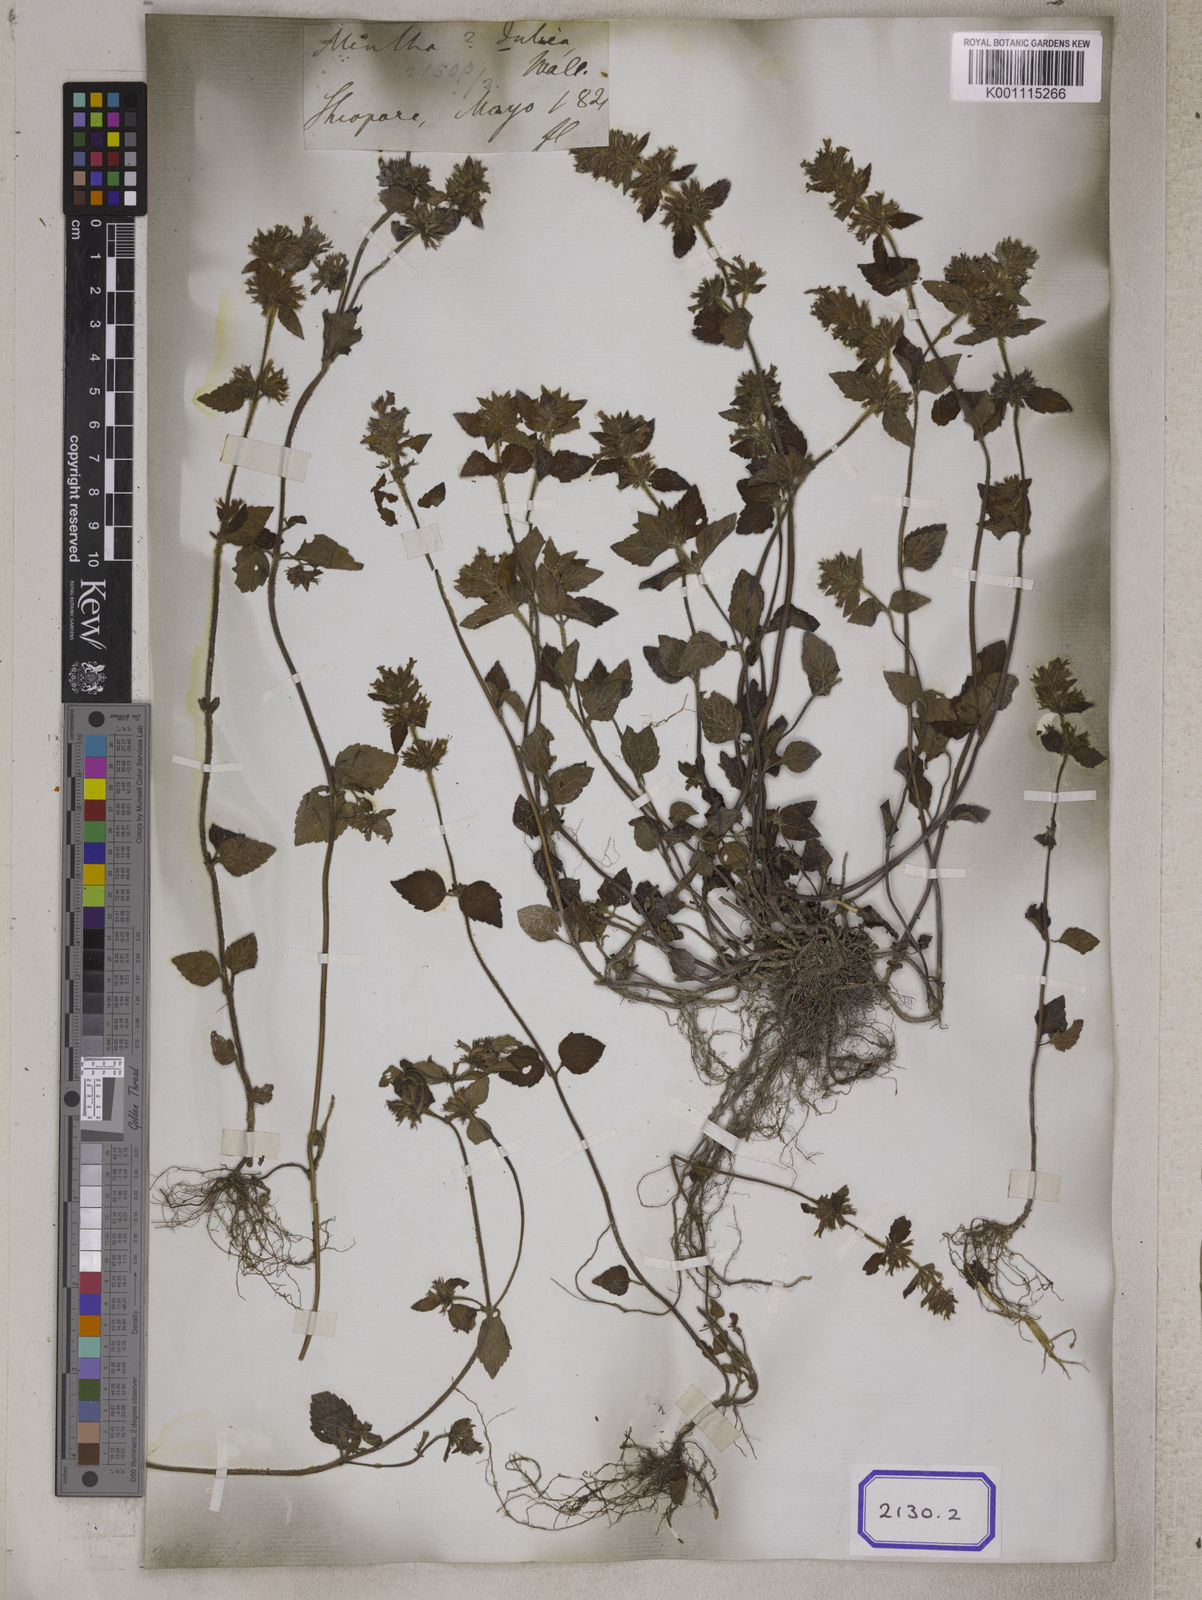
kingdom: Plantae
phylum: Tracheophyta
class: Magnoliopsida
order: Lamiales
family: Lamiaceae
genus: Clinopodium
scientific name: Clinopodium
